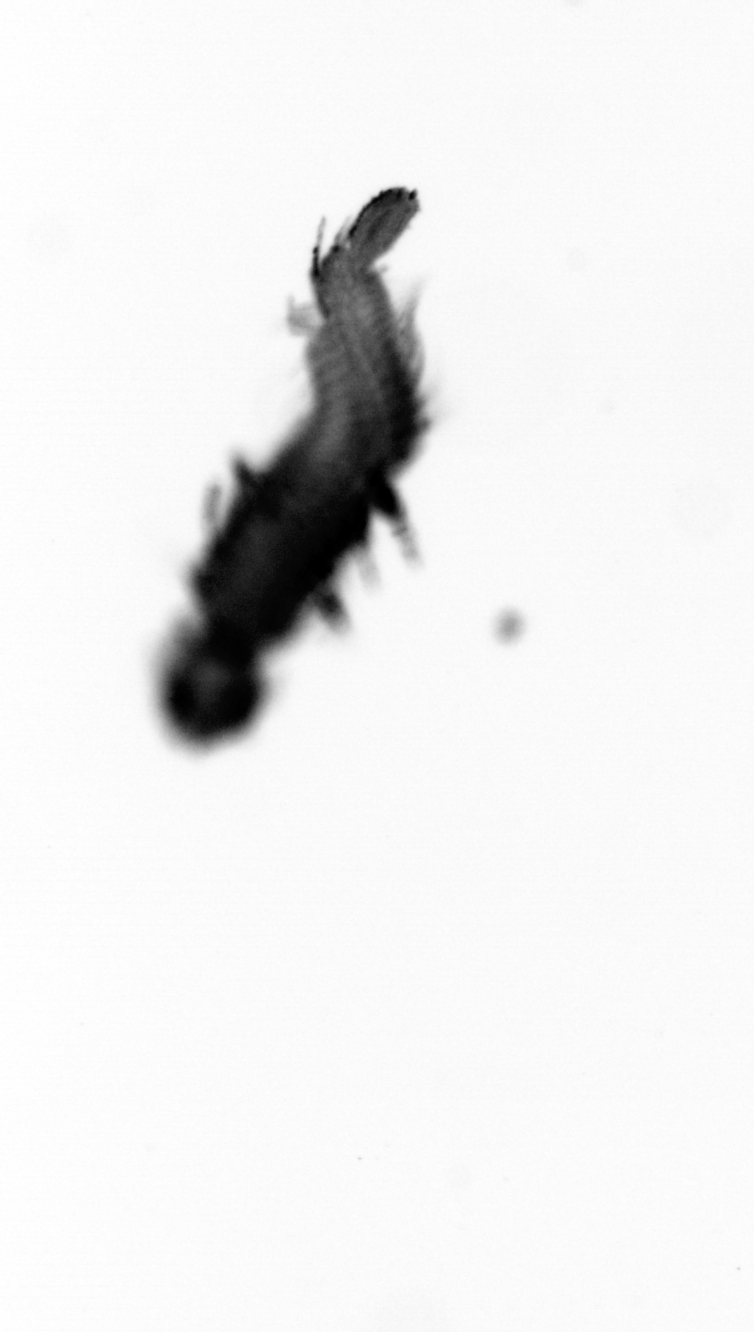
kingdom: Animalia
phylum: Annelida
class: Polychaeta
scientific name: Polychaeta
